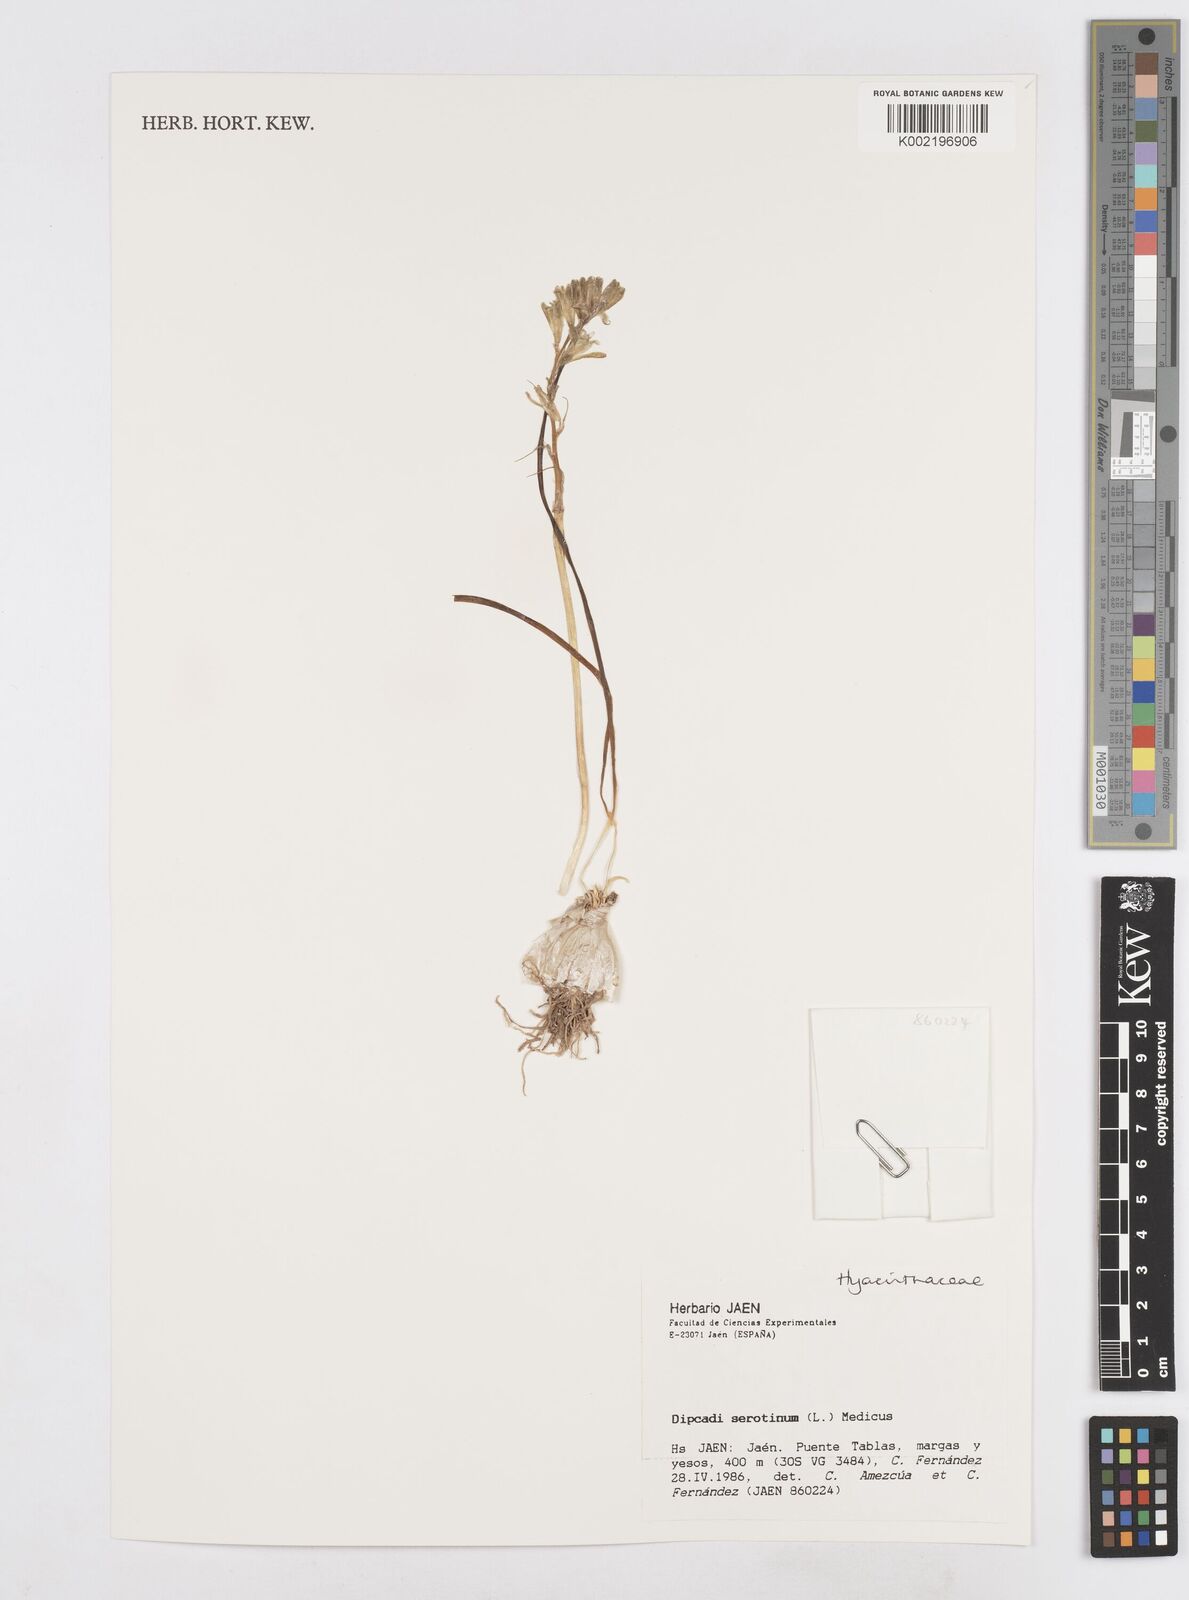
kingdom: Plantae
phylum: Tracheophyta
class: Liliopsida
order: Asparagales
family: Asparagaceae
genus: Dipcadi
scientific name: Dipcadi serotinum
